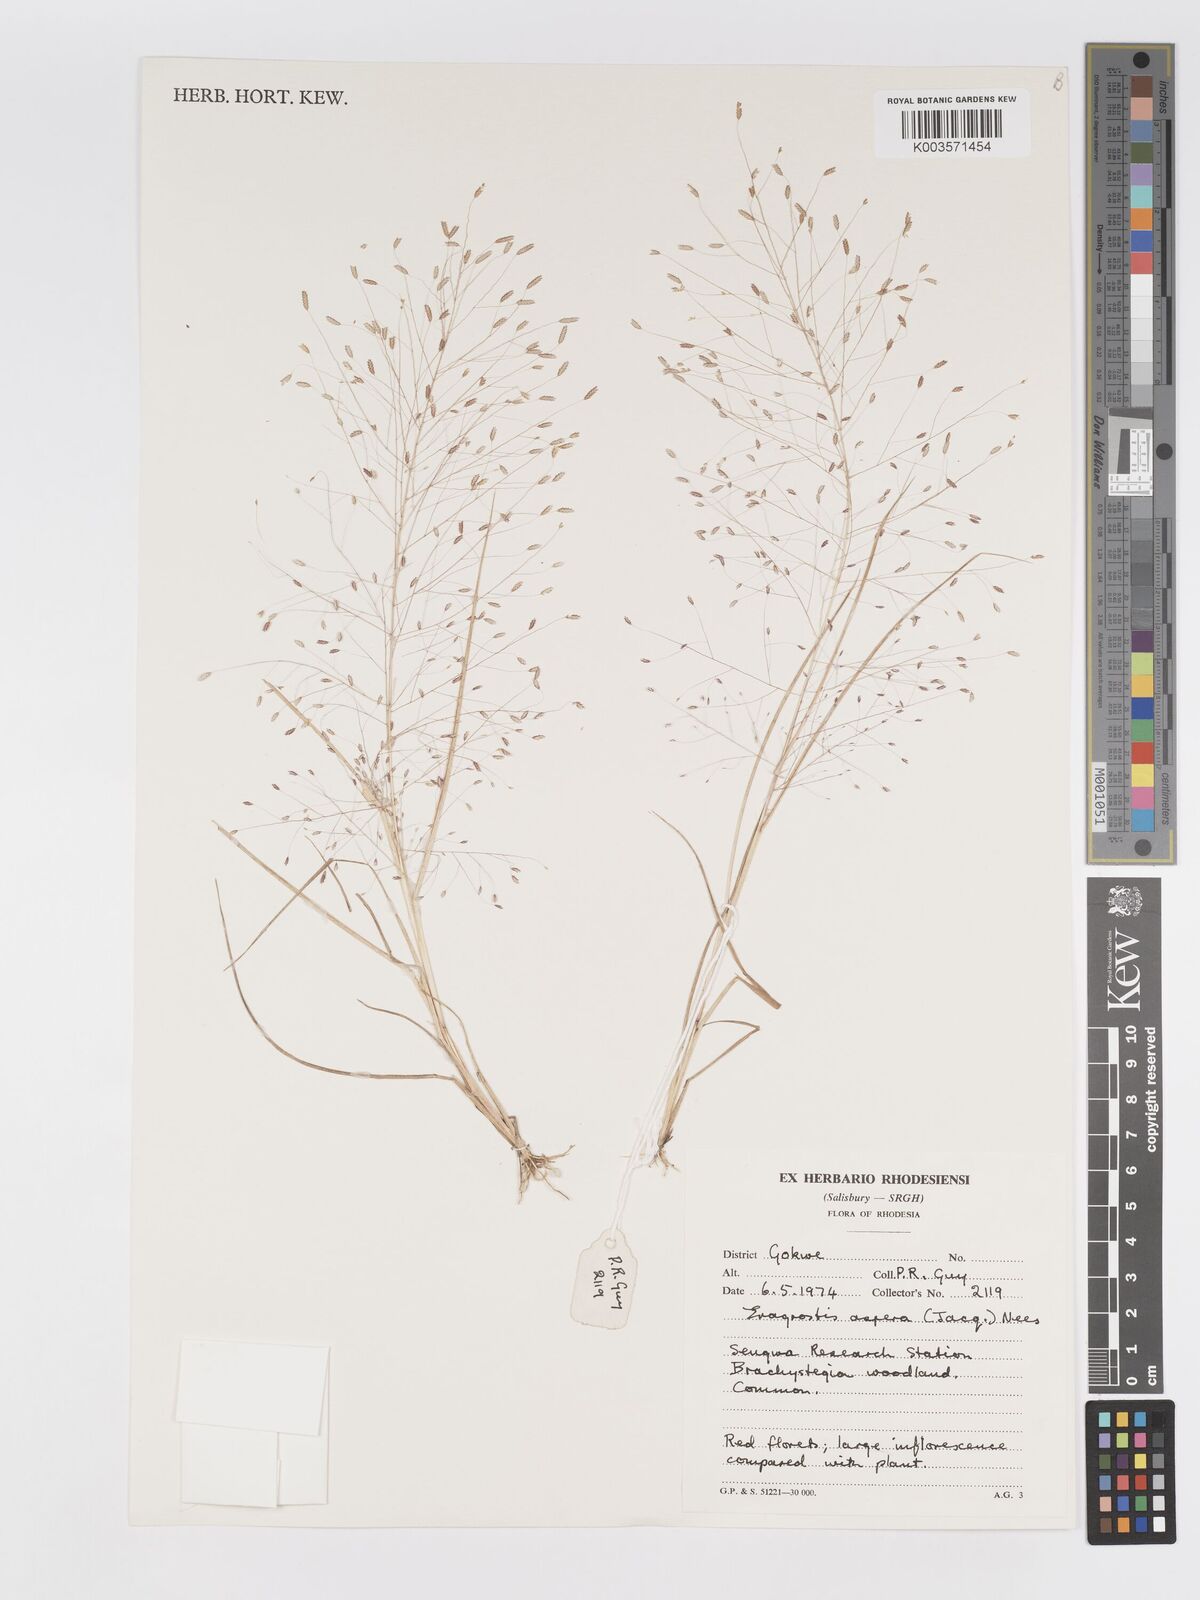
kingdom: Plantae
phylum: Tracheophyta
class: Liliopsida
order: Poales
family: Poaceae
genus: Eragrostis
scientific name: Eragrostis aspera
